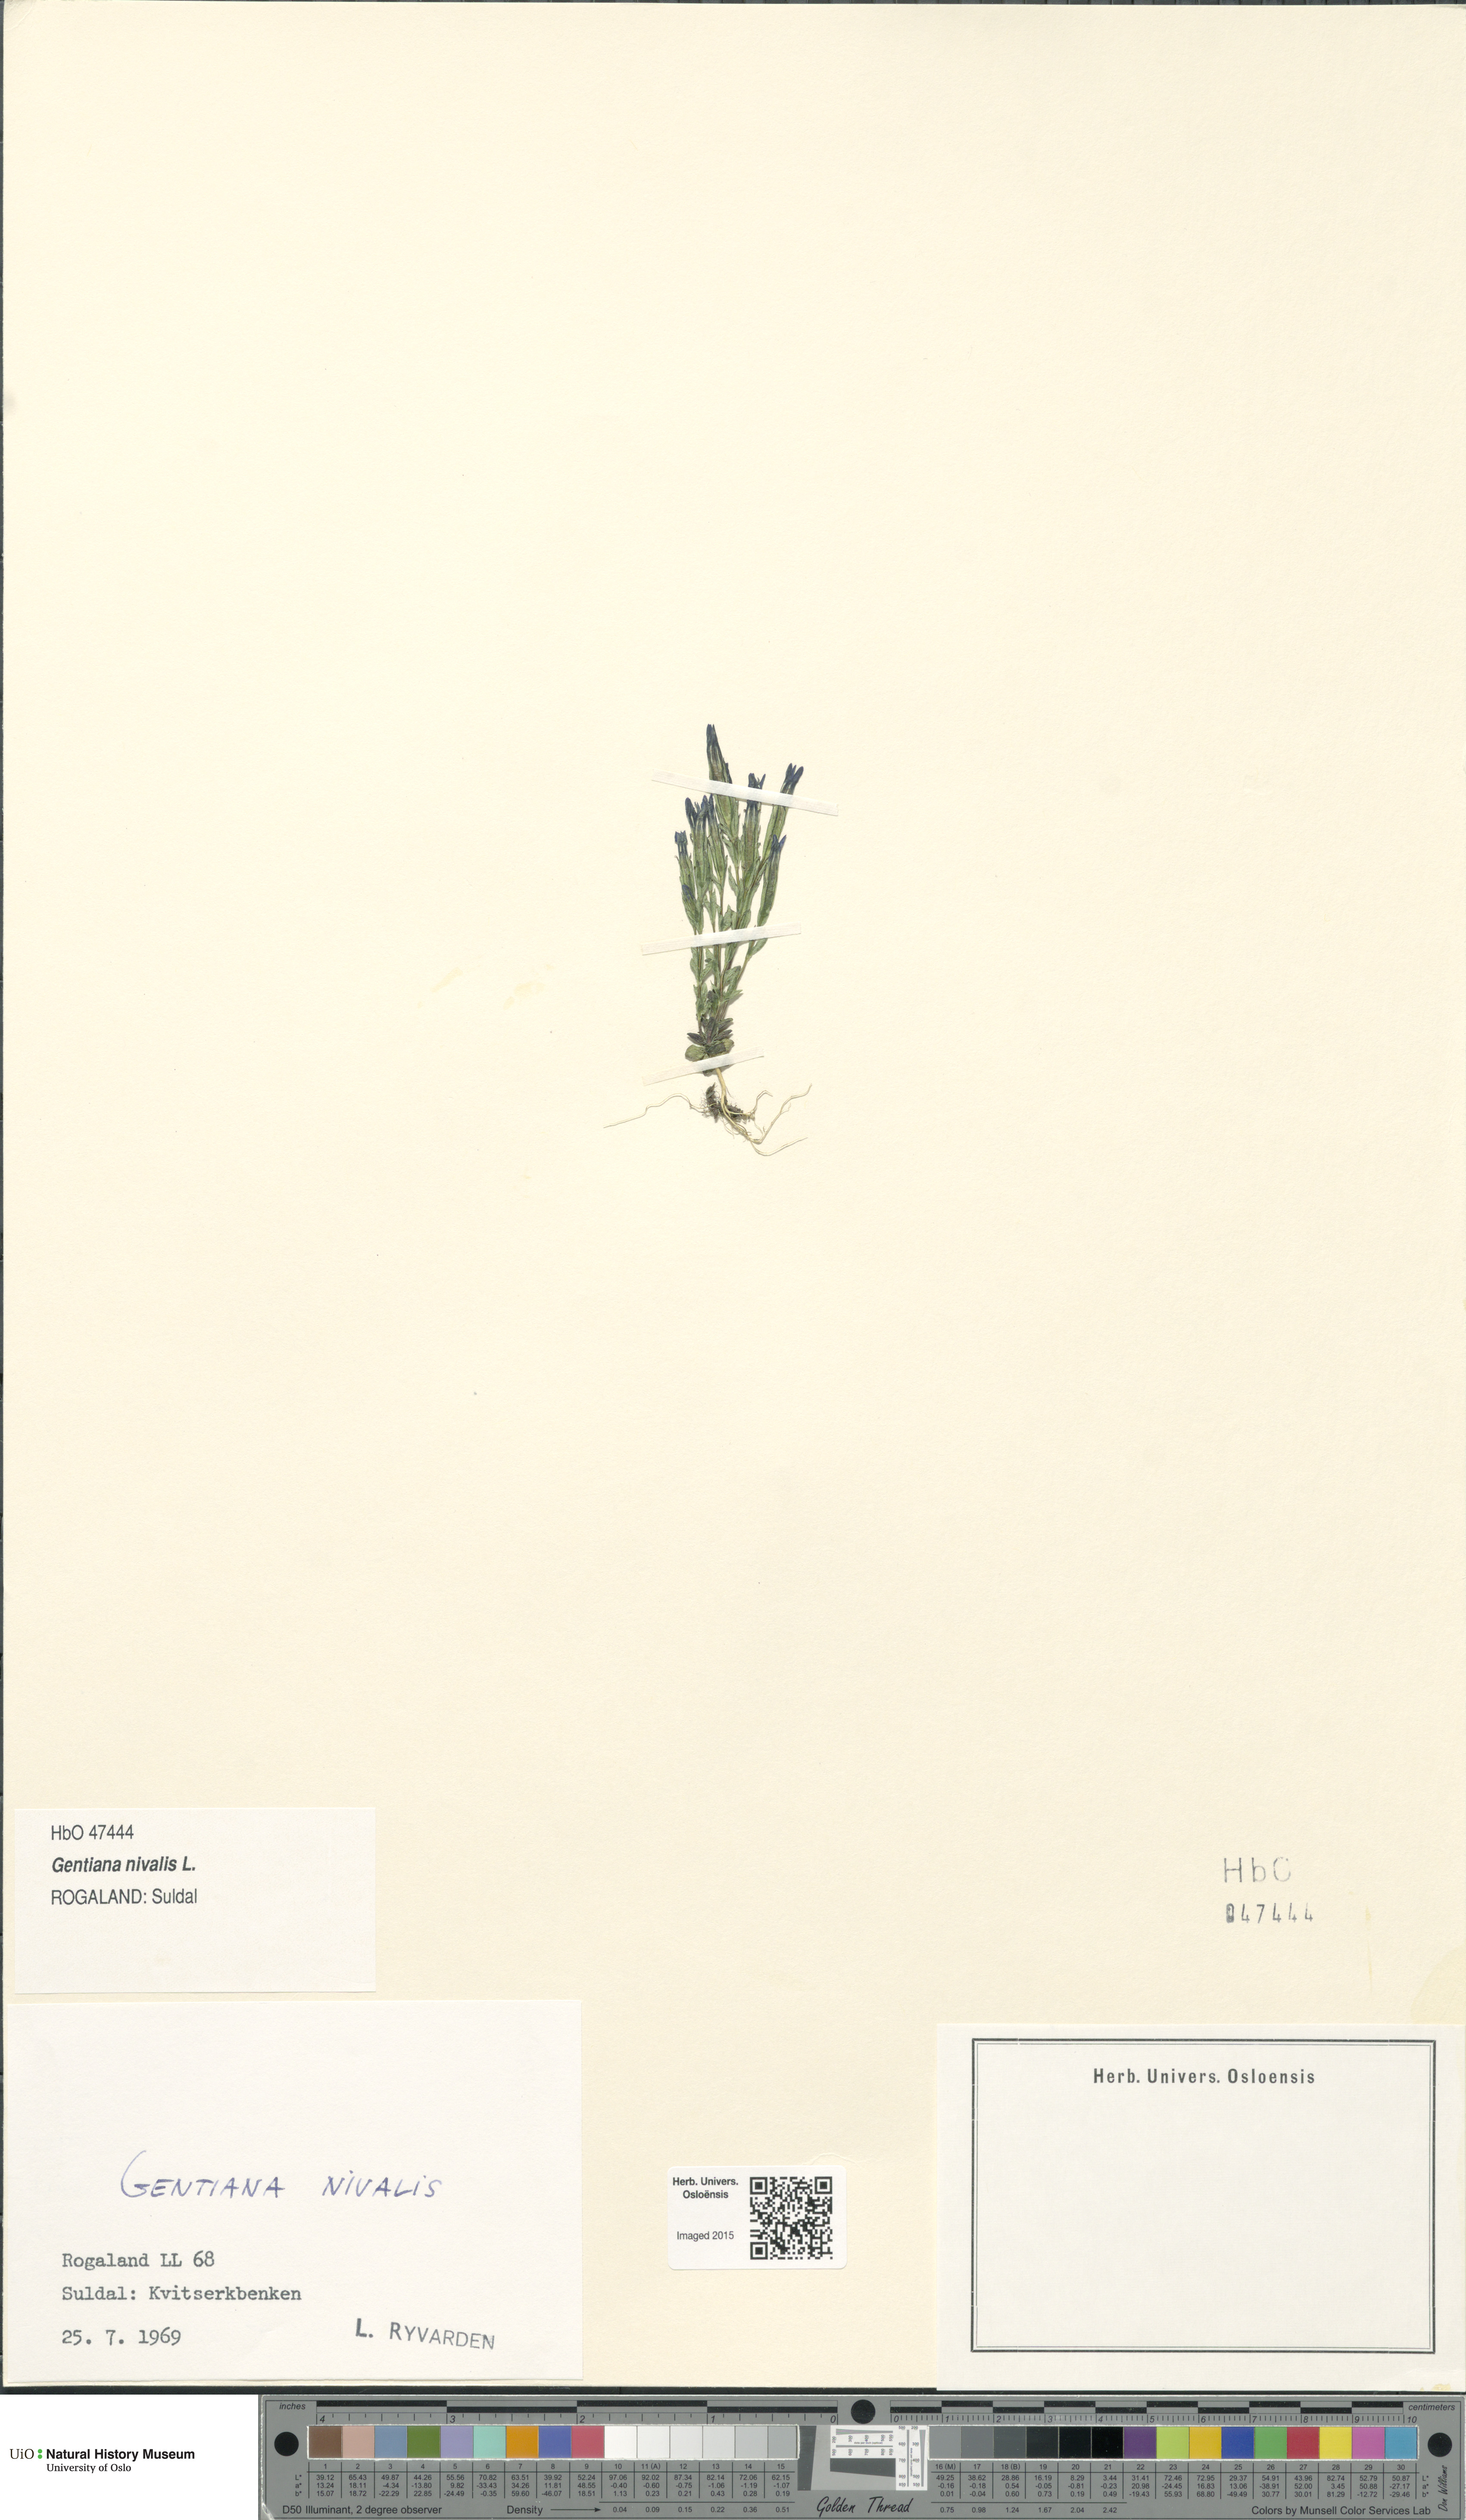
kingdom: Plantae
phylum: Tracheophyta
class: Magnoliopsida
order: Gentianales
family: Gentianaceae
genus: Gentiana
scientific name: Gentiana nivalis
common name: Alpine gentian
